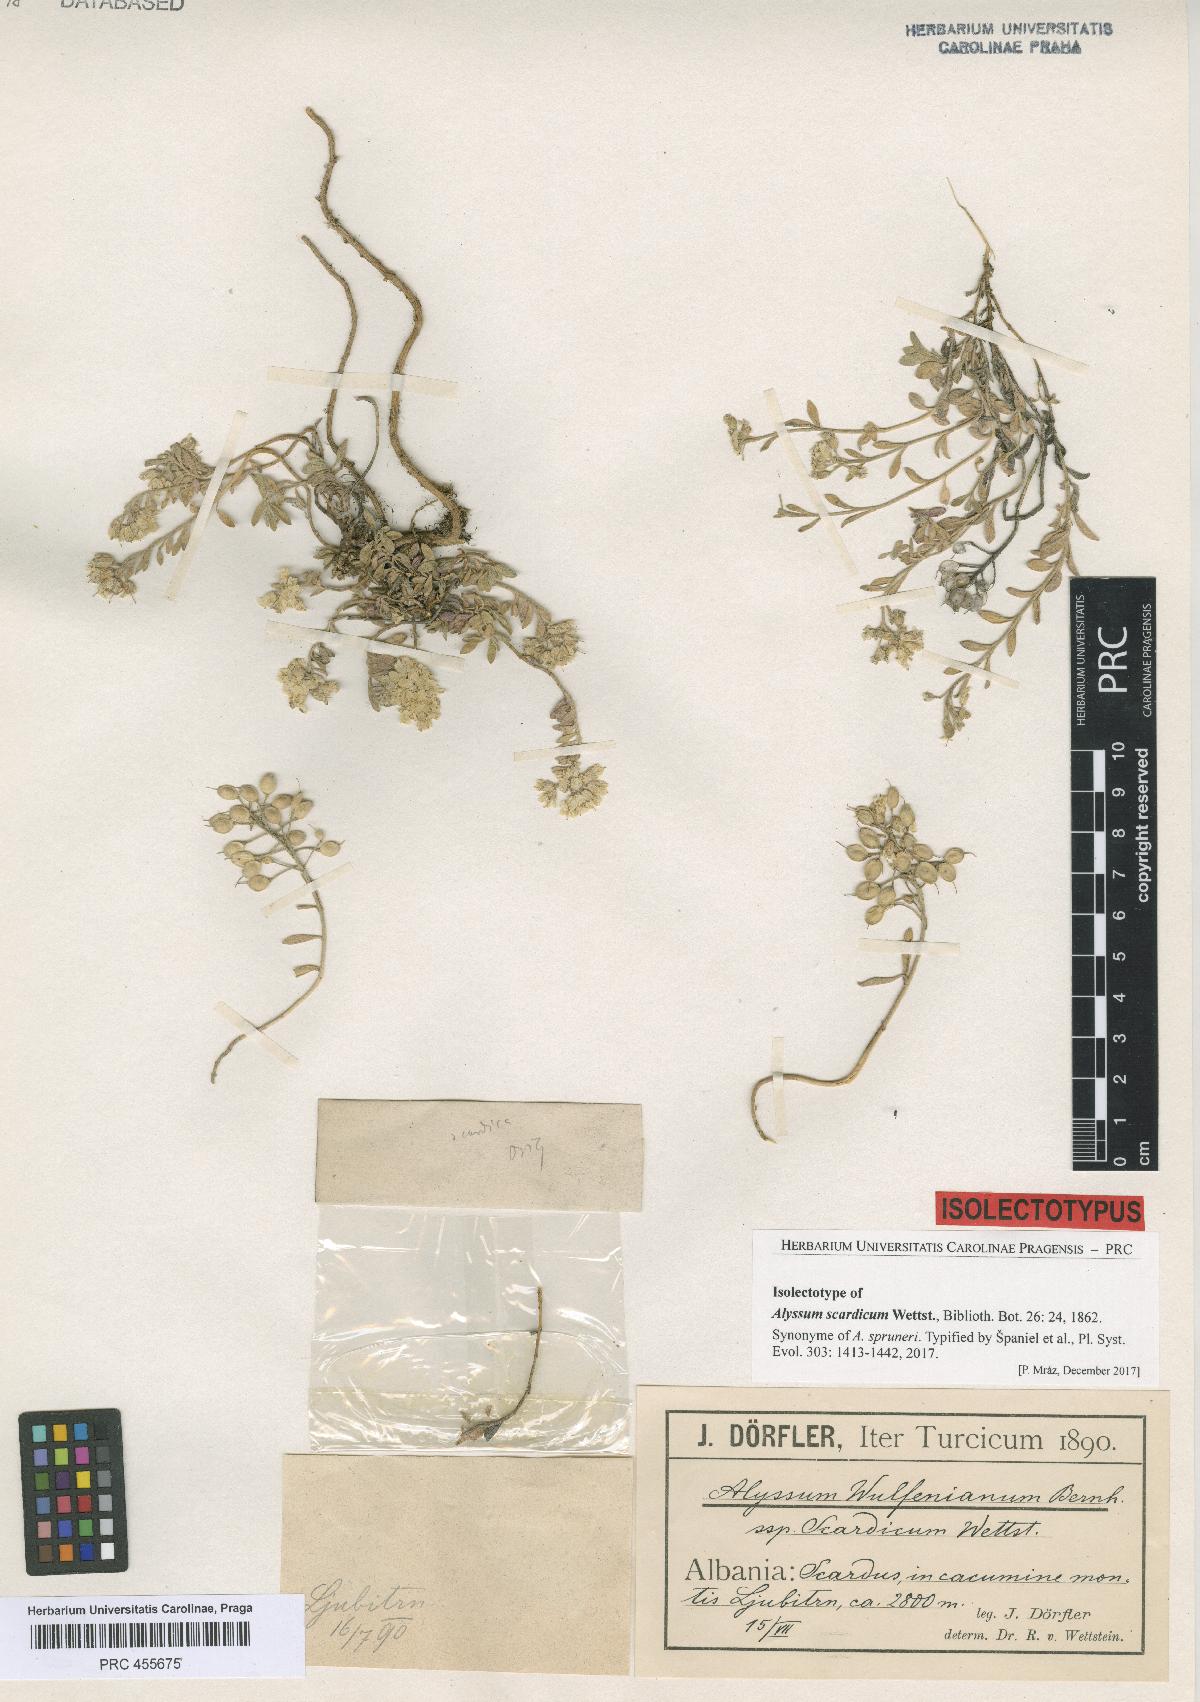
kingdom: Plantae
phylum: Tracheophyta
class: Magnoliopsida
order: Brassicales
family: Brassicaceae
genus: Alyssum
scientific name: Alyssum pirinicum
